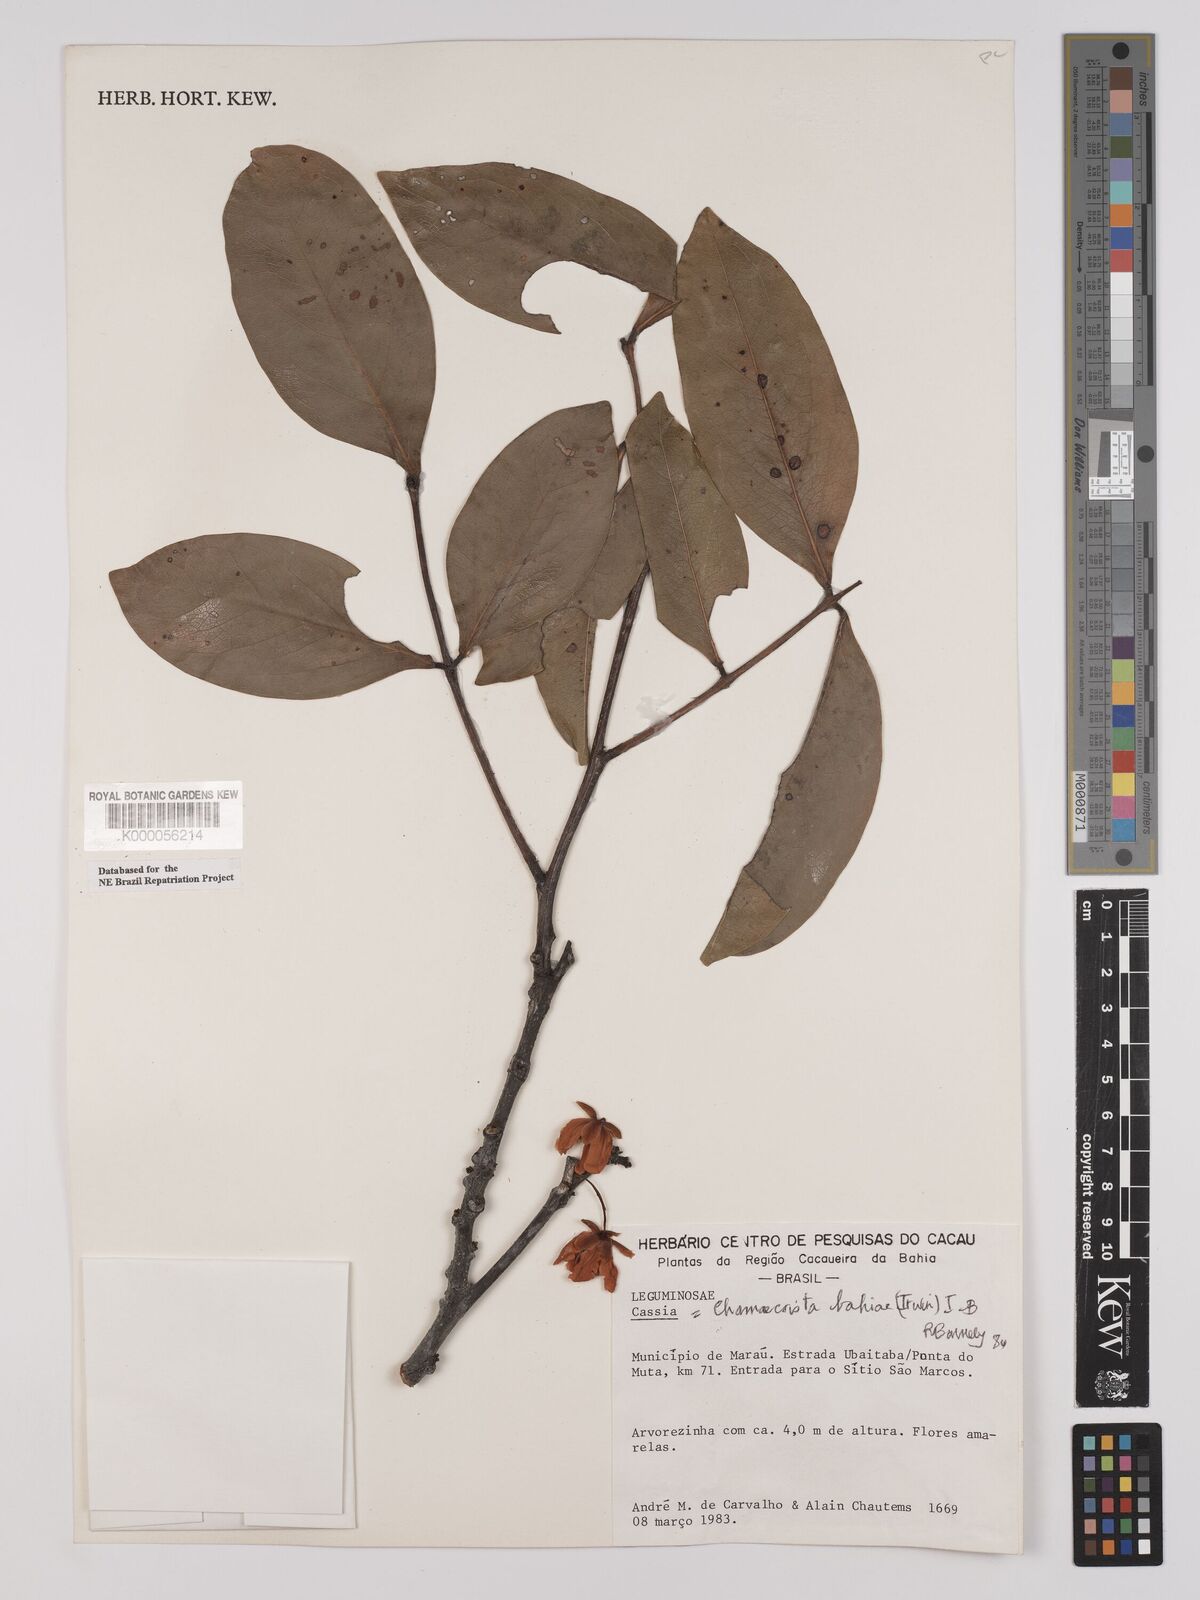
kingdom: Plantae
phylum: Tracheophyta
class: Magnoliopsida
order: Fabales
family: Fabaceae
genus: Chamaecrista
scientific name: Chamaecrista bahiae
